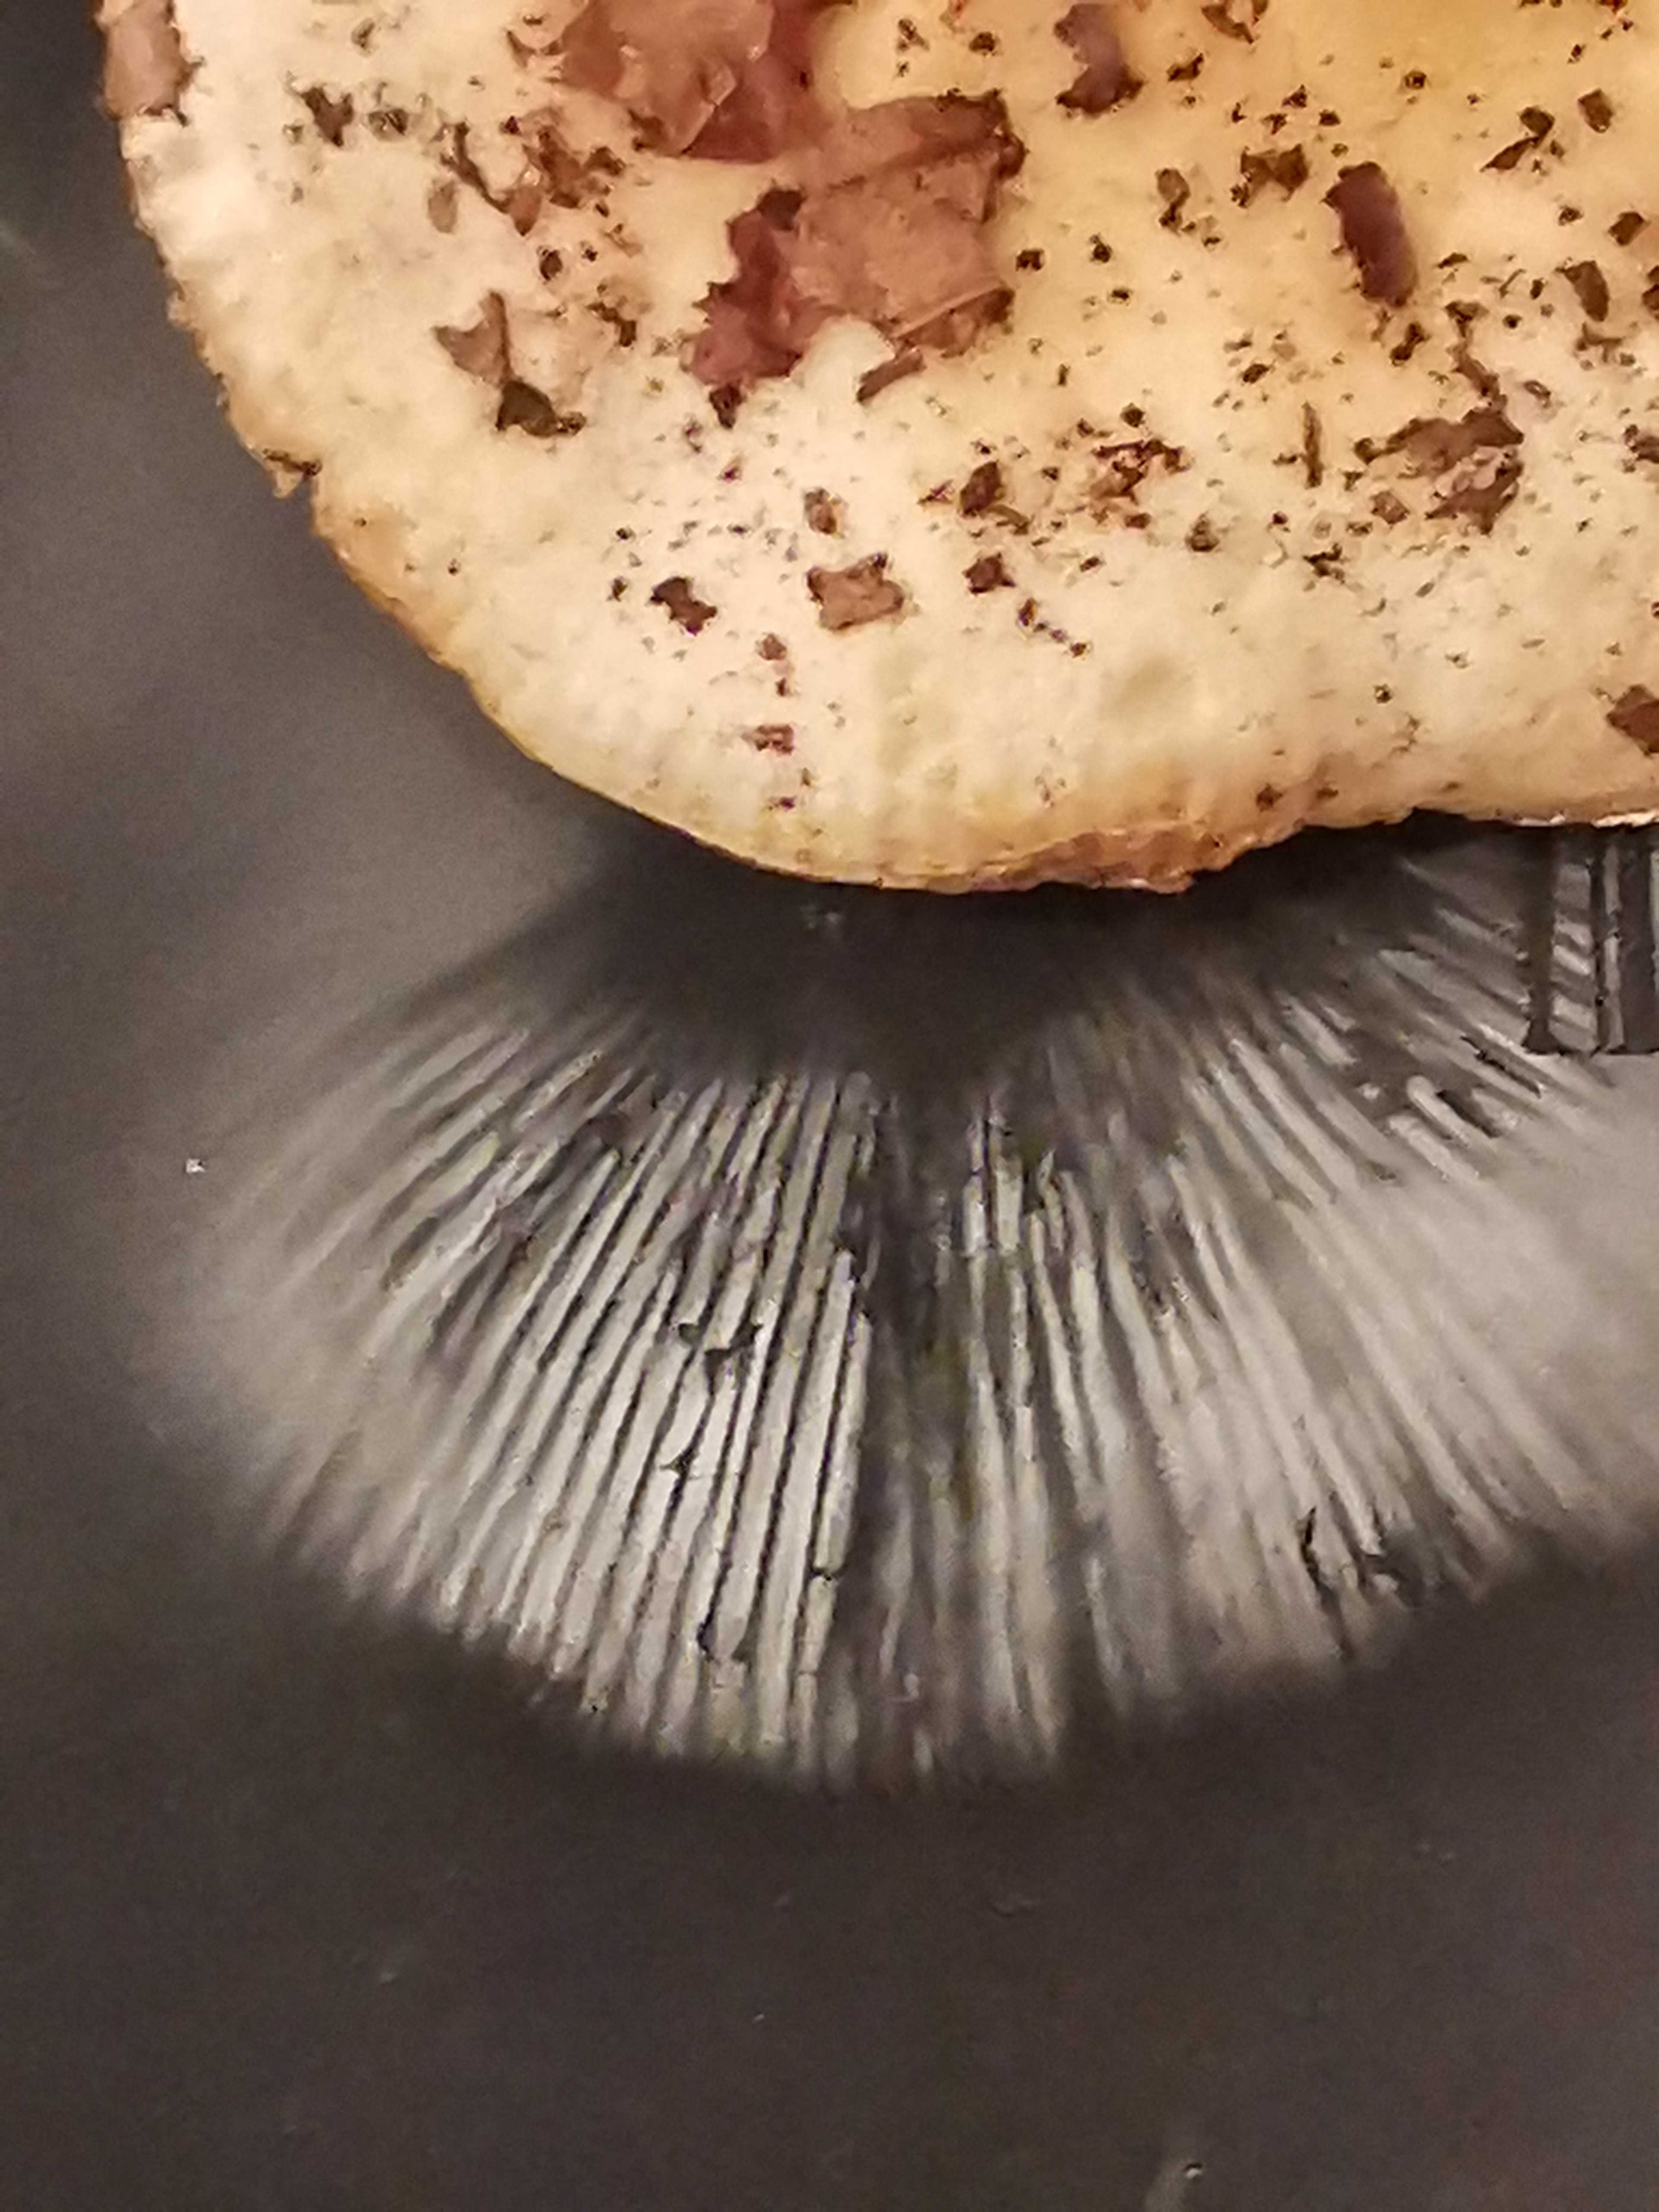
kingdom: Fungi
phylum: Basidiomycota
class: Agaricomycetes
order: Russulales
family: Russulaceae
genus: Russula
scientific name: Russula
